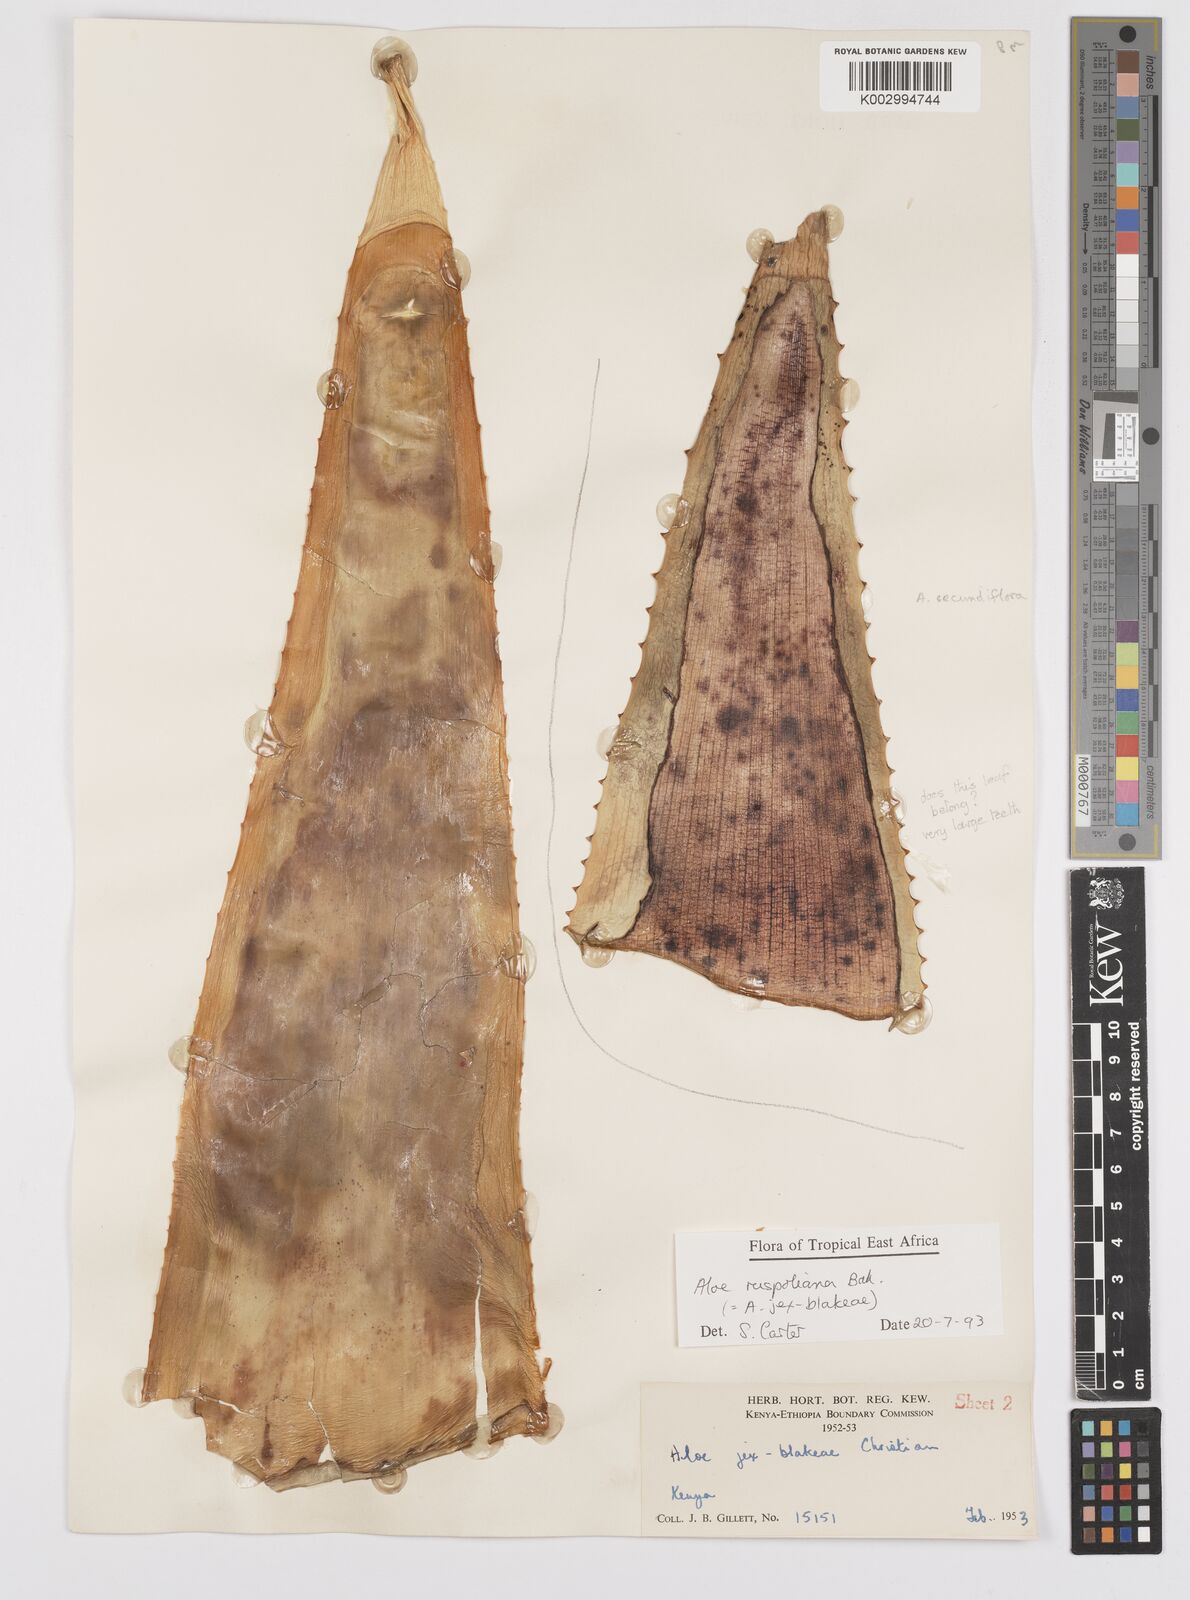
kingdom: Plantae
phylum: Tracheophyta
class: Liliopsida
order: Asparagales
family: Asphodelaceae
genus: Aloe
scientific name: Aloe ruspoliana
